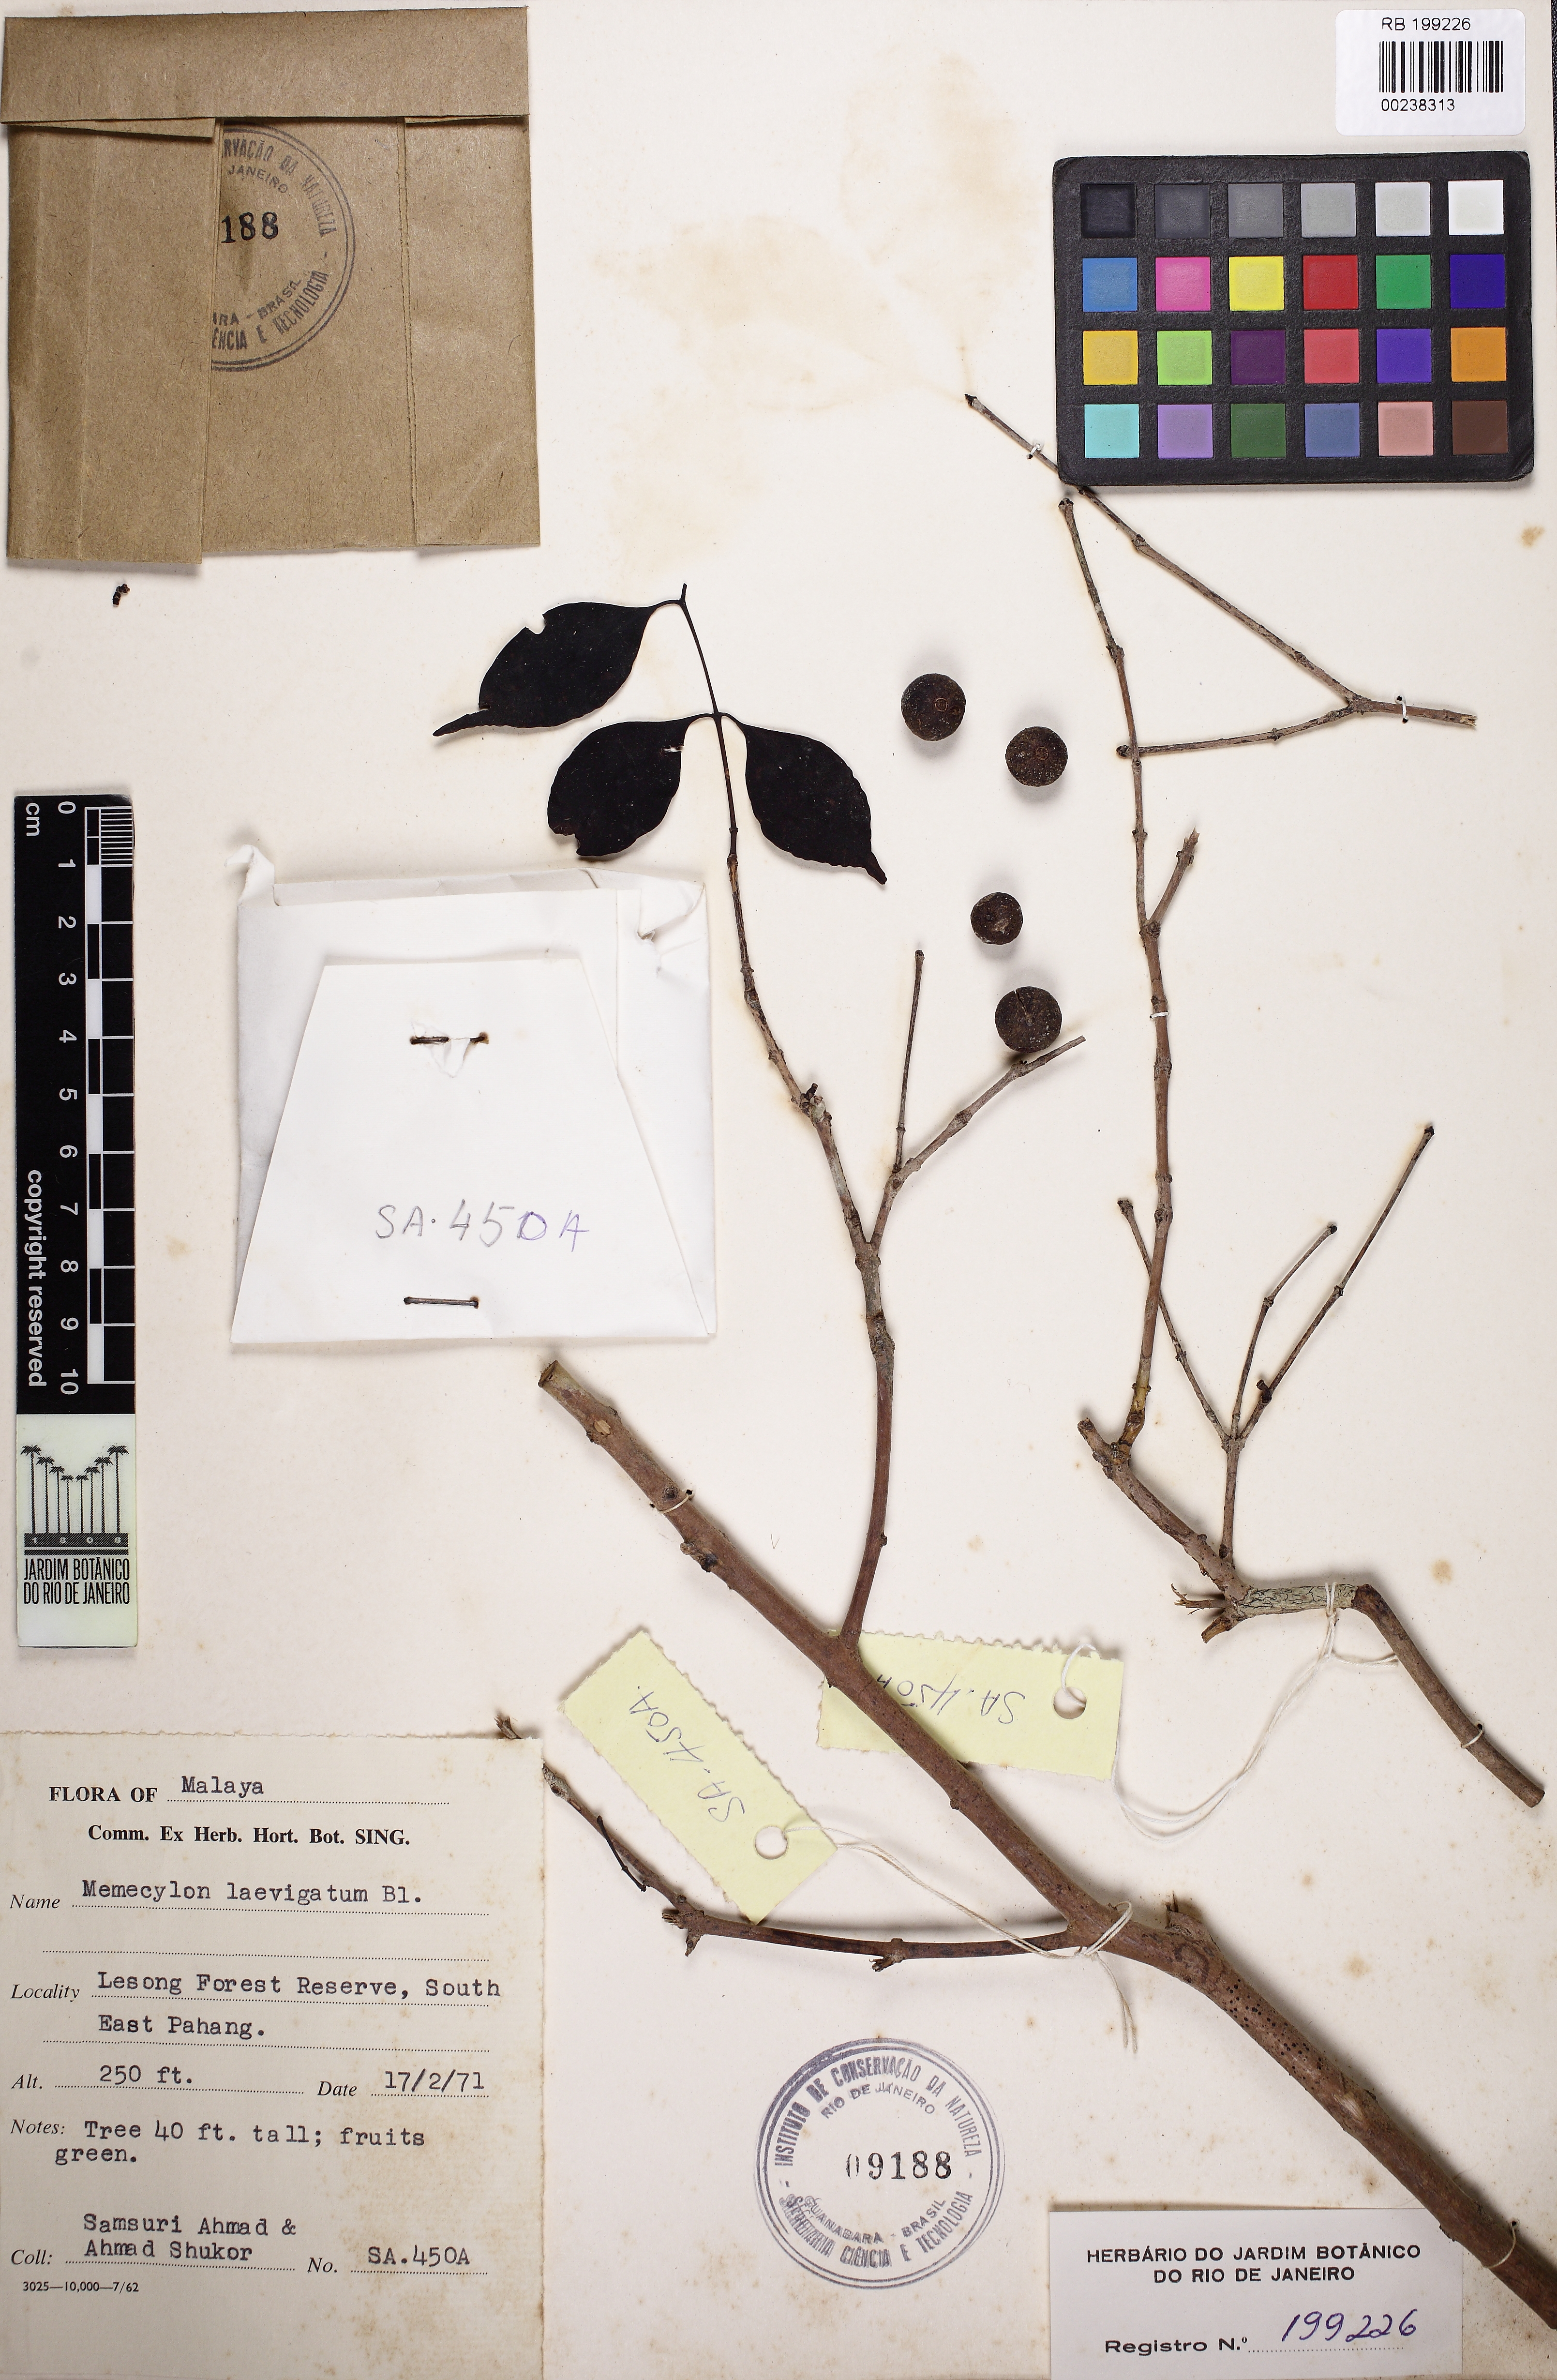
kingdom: Plantae
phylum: Tracheophyta
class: Magnoliopsida
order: Myrtales
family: Melastomataceae
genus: Memecylon
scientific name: Memecylon lilacinum
